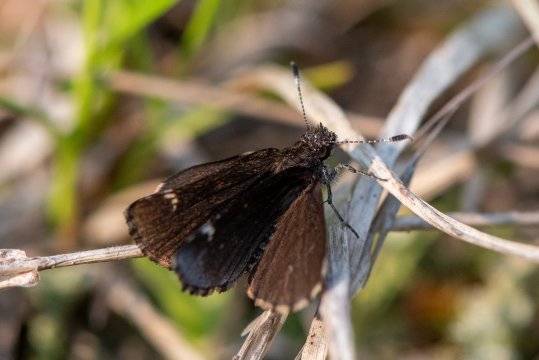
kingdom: Animalia
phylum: Arthropoda
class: Insecta
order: Lepidoptera
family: Hesperiidae
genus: Mastor
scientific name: Mastor vialis
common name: Common Roadside-Skipper
